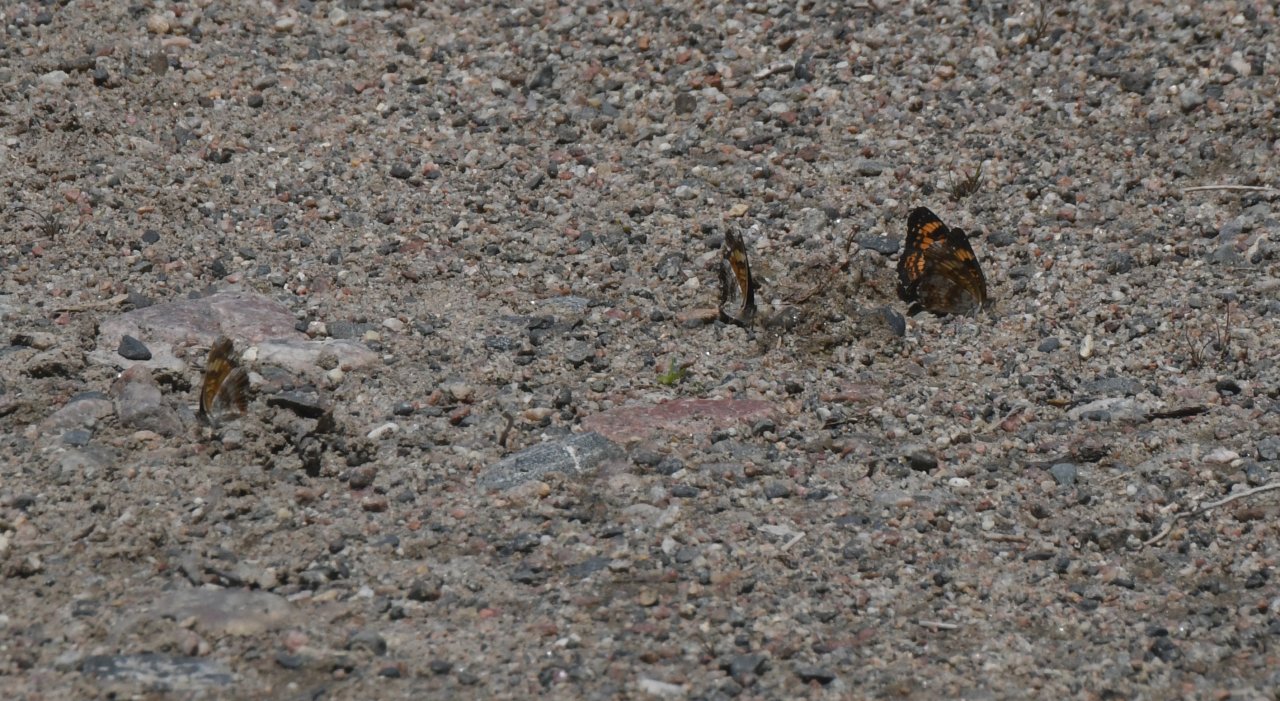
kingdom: Animalia
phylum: Arthropoda
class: Insecta
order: Lepidoptera
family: Nymphalidae
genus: Chlosyne
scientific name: Chlosyne nycteis
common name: Silvery Checkerspot
